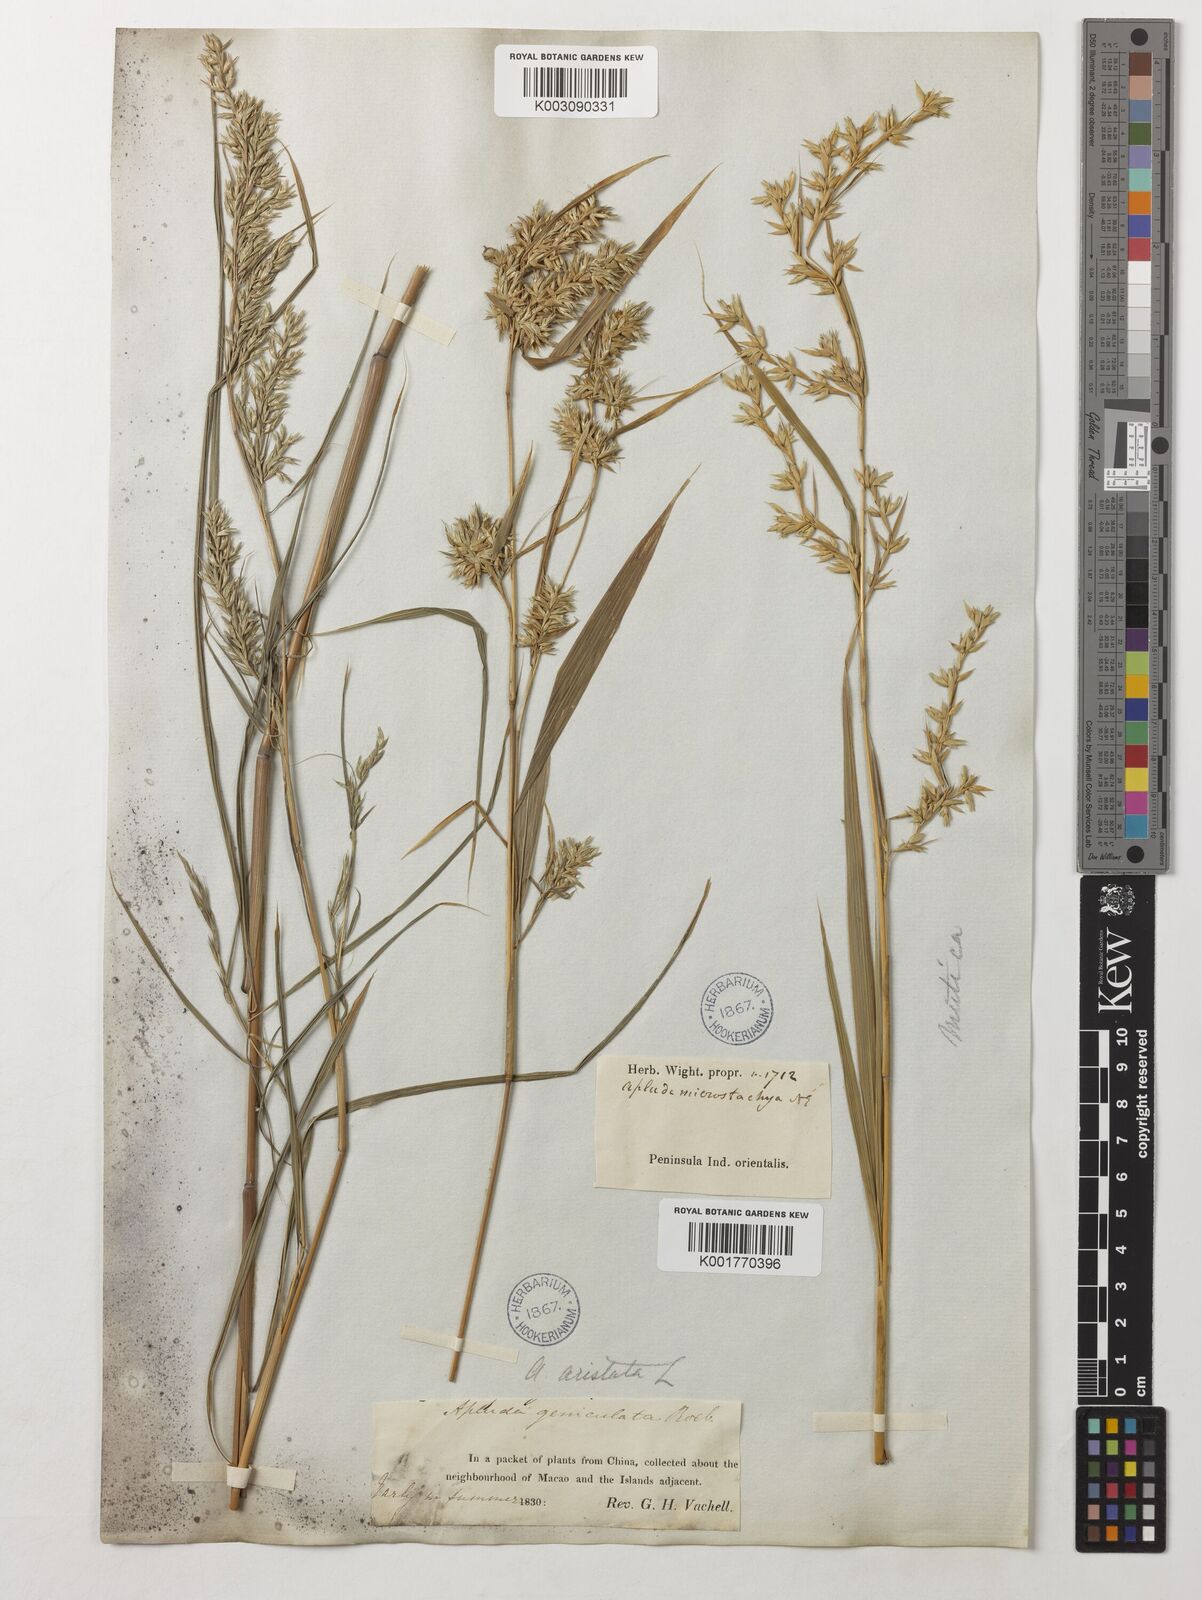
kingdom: Plantae
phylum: Tracheophyta
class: Liliopsida
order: Poales
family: Poaceae
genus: Apluda
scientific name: Apluda mutica
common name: Mauritian grass
